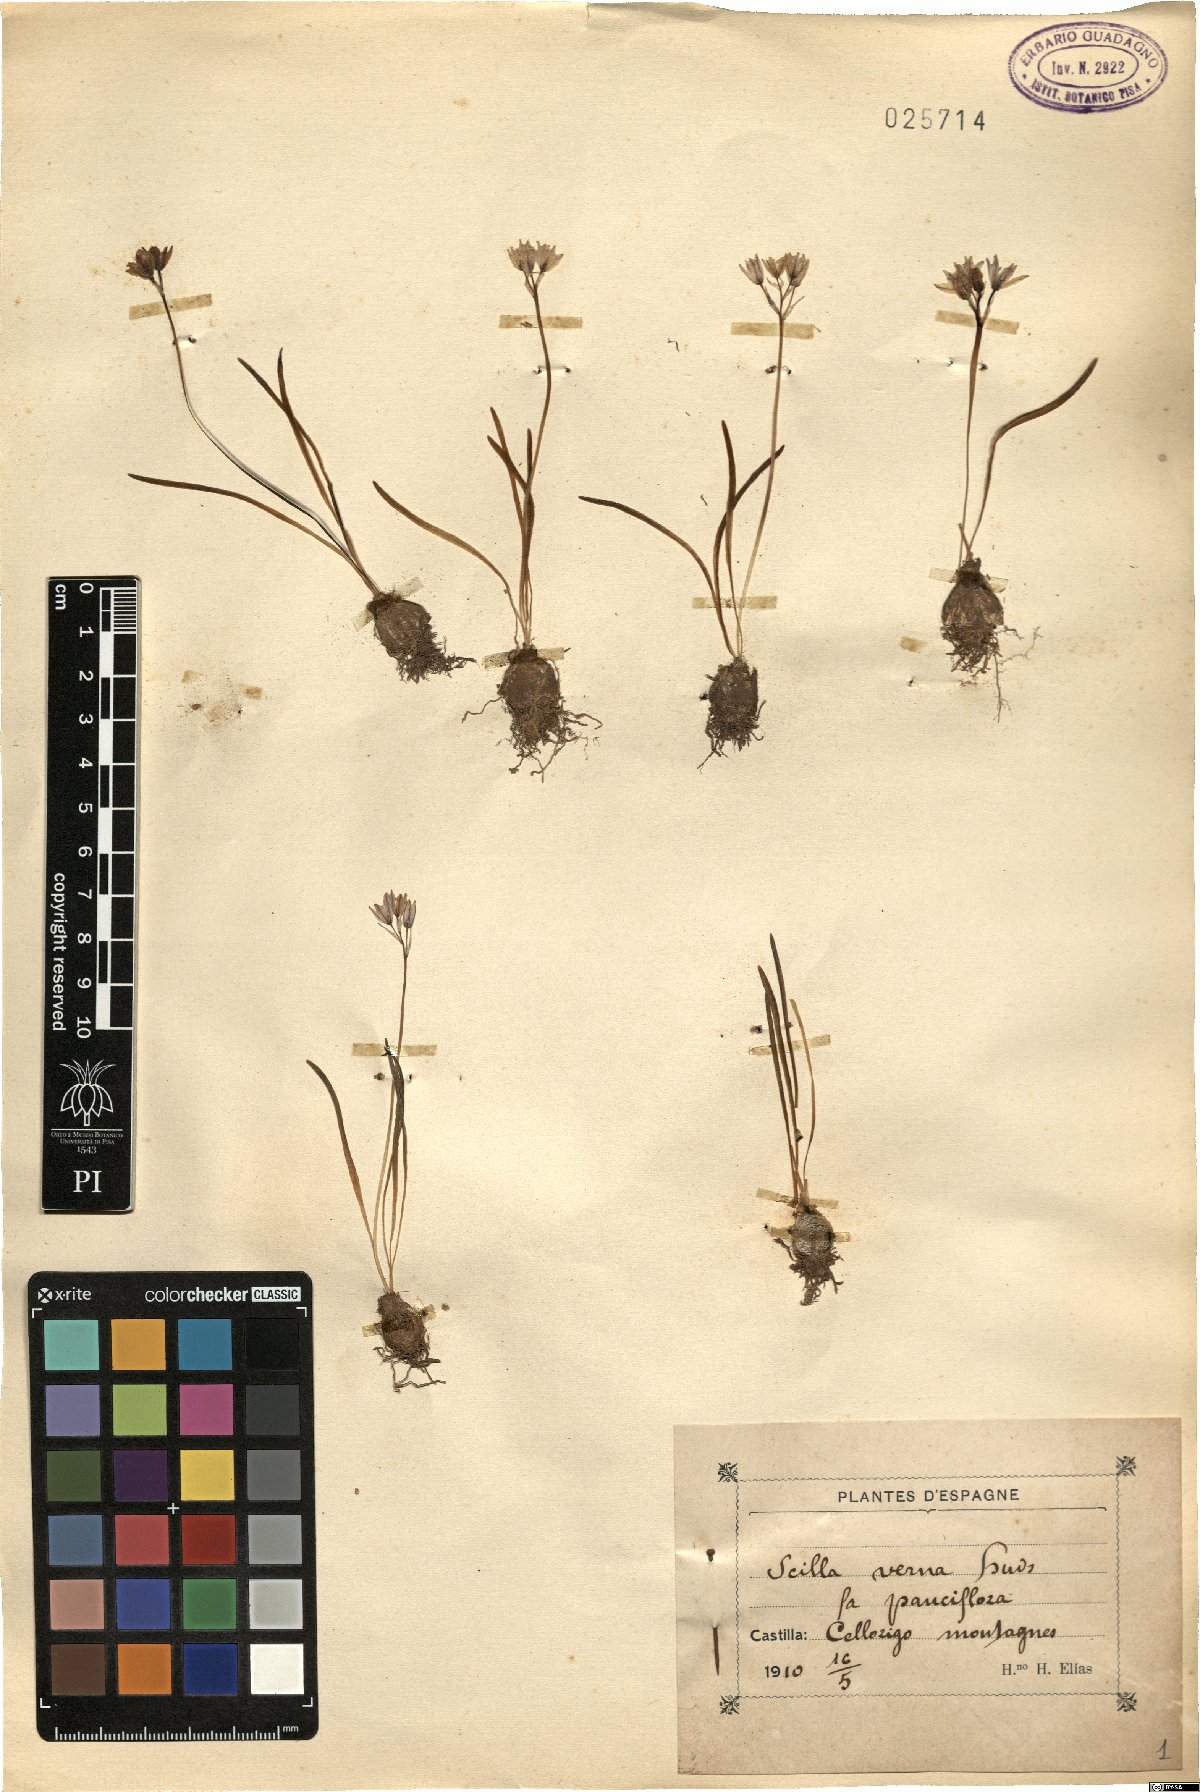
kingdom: Plantae
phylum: Tracheophyta
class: Liliopsida
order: Asparagales
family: Asparagaceae
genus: Scilla
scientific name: Scilla verna
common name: Spring squill
